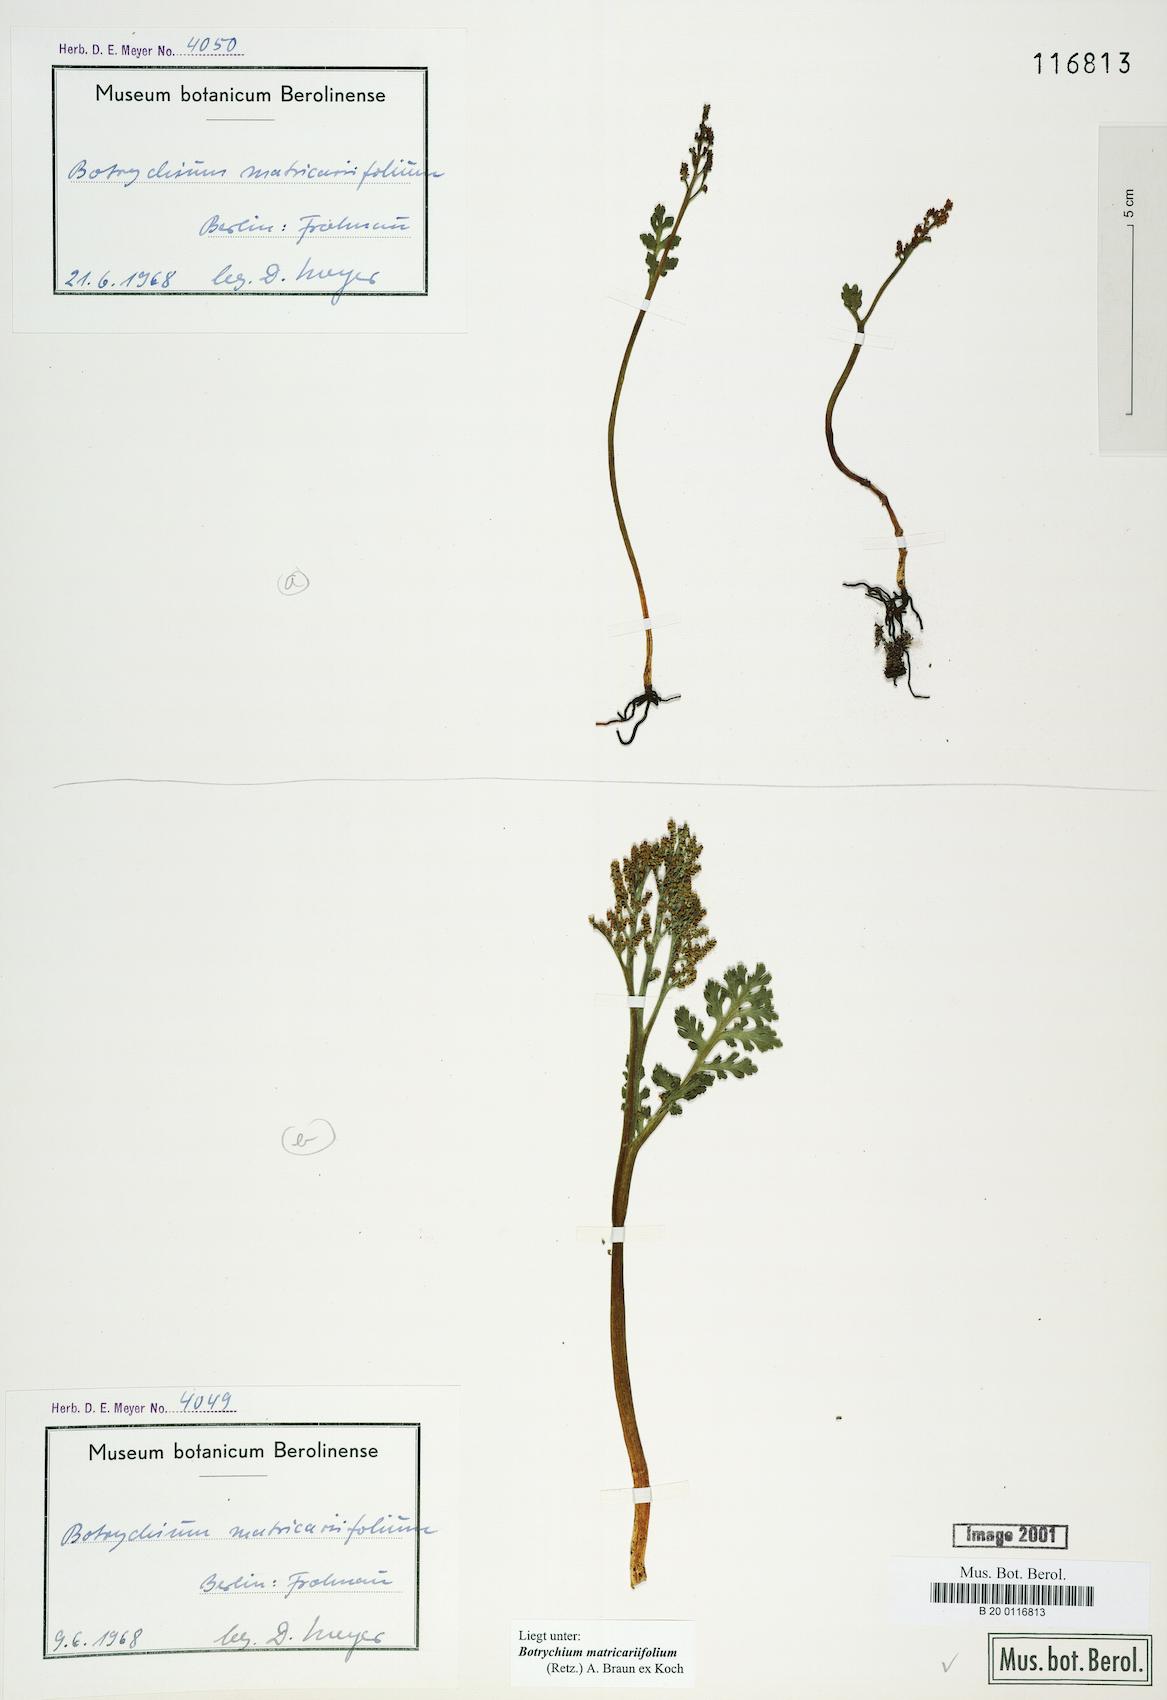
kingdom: Plantae
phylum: Tracheophyta
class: Polypodiopsida
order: Ophioglossales
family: Ophioglossaceae
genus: Botrychium
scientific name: Botrychium matricariifolium
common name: Branched moonwort
